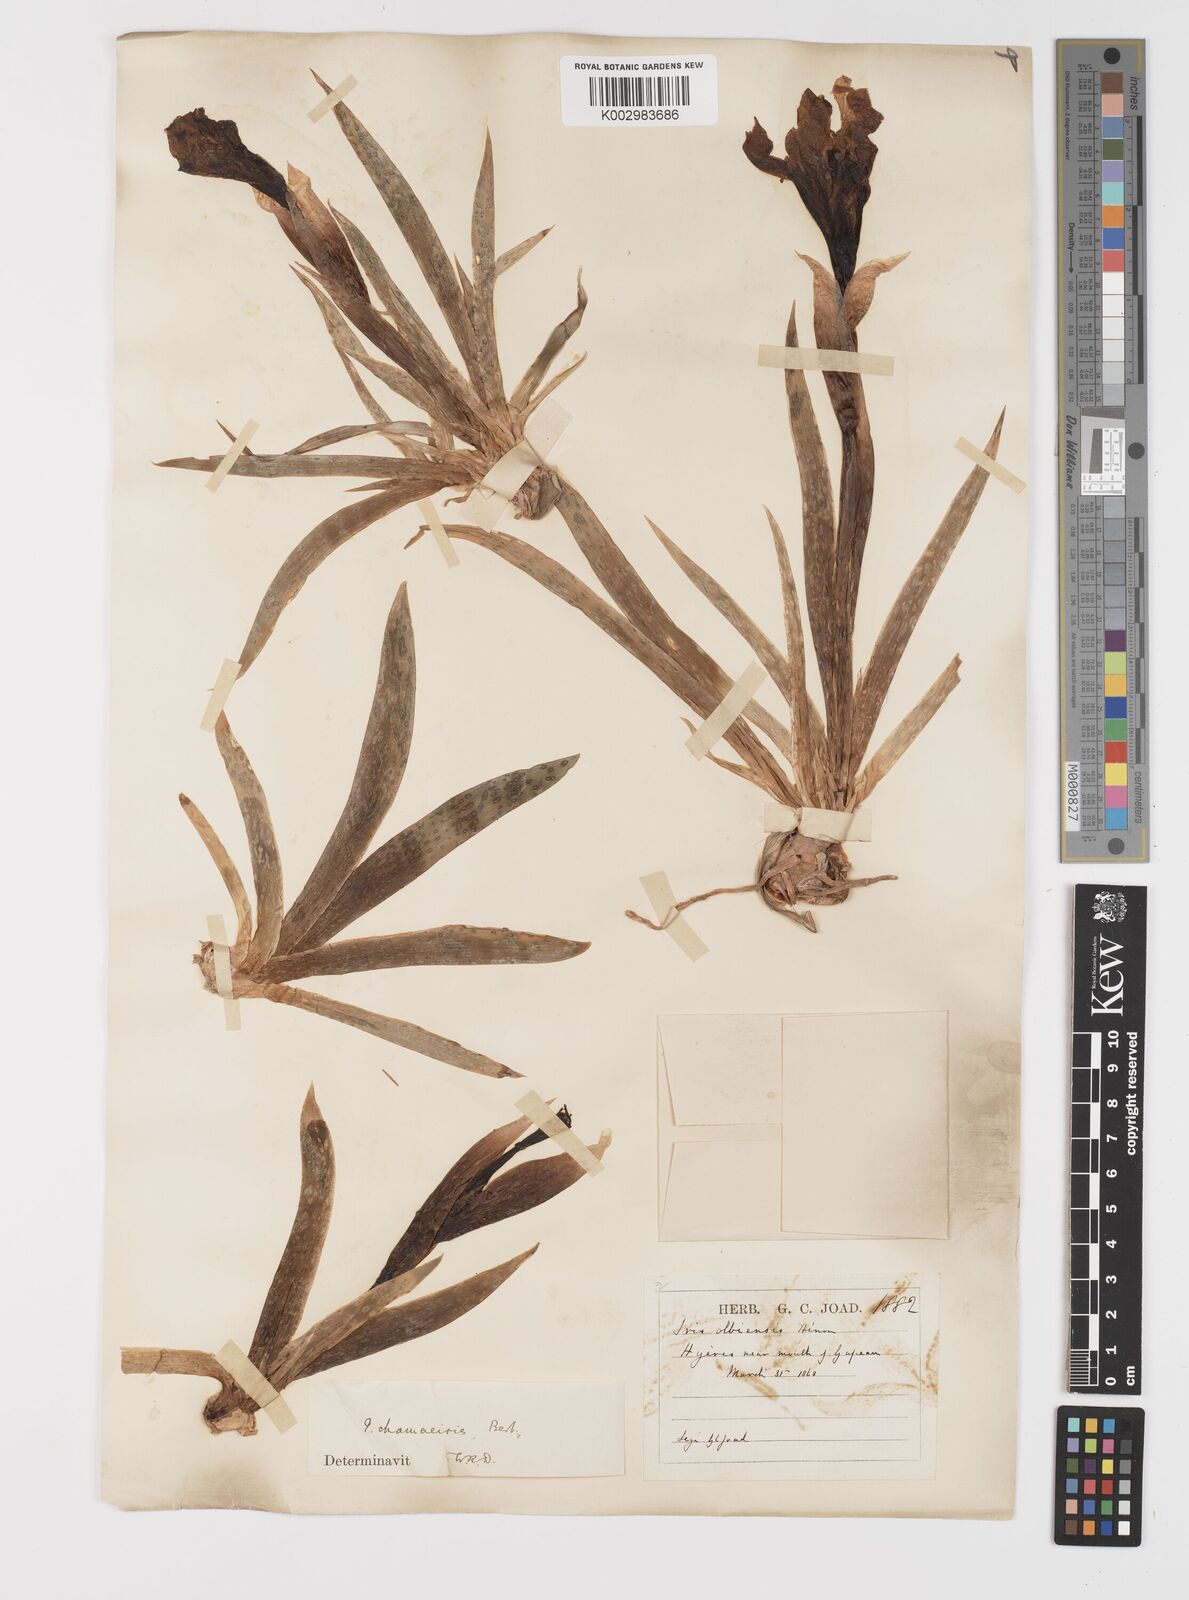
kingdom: Plantae
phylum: Tracheophyta
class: Liliopsida
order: Asparagales
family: Iridaceae
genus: Iris
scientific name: Iris lutescens
